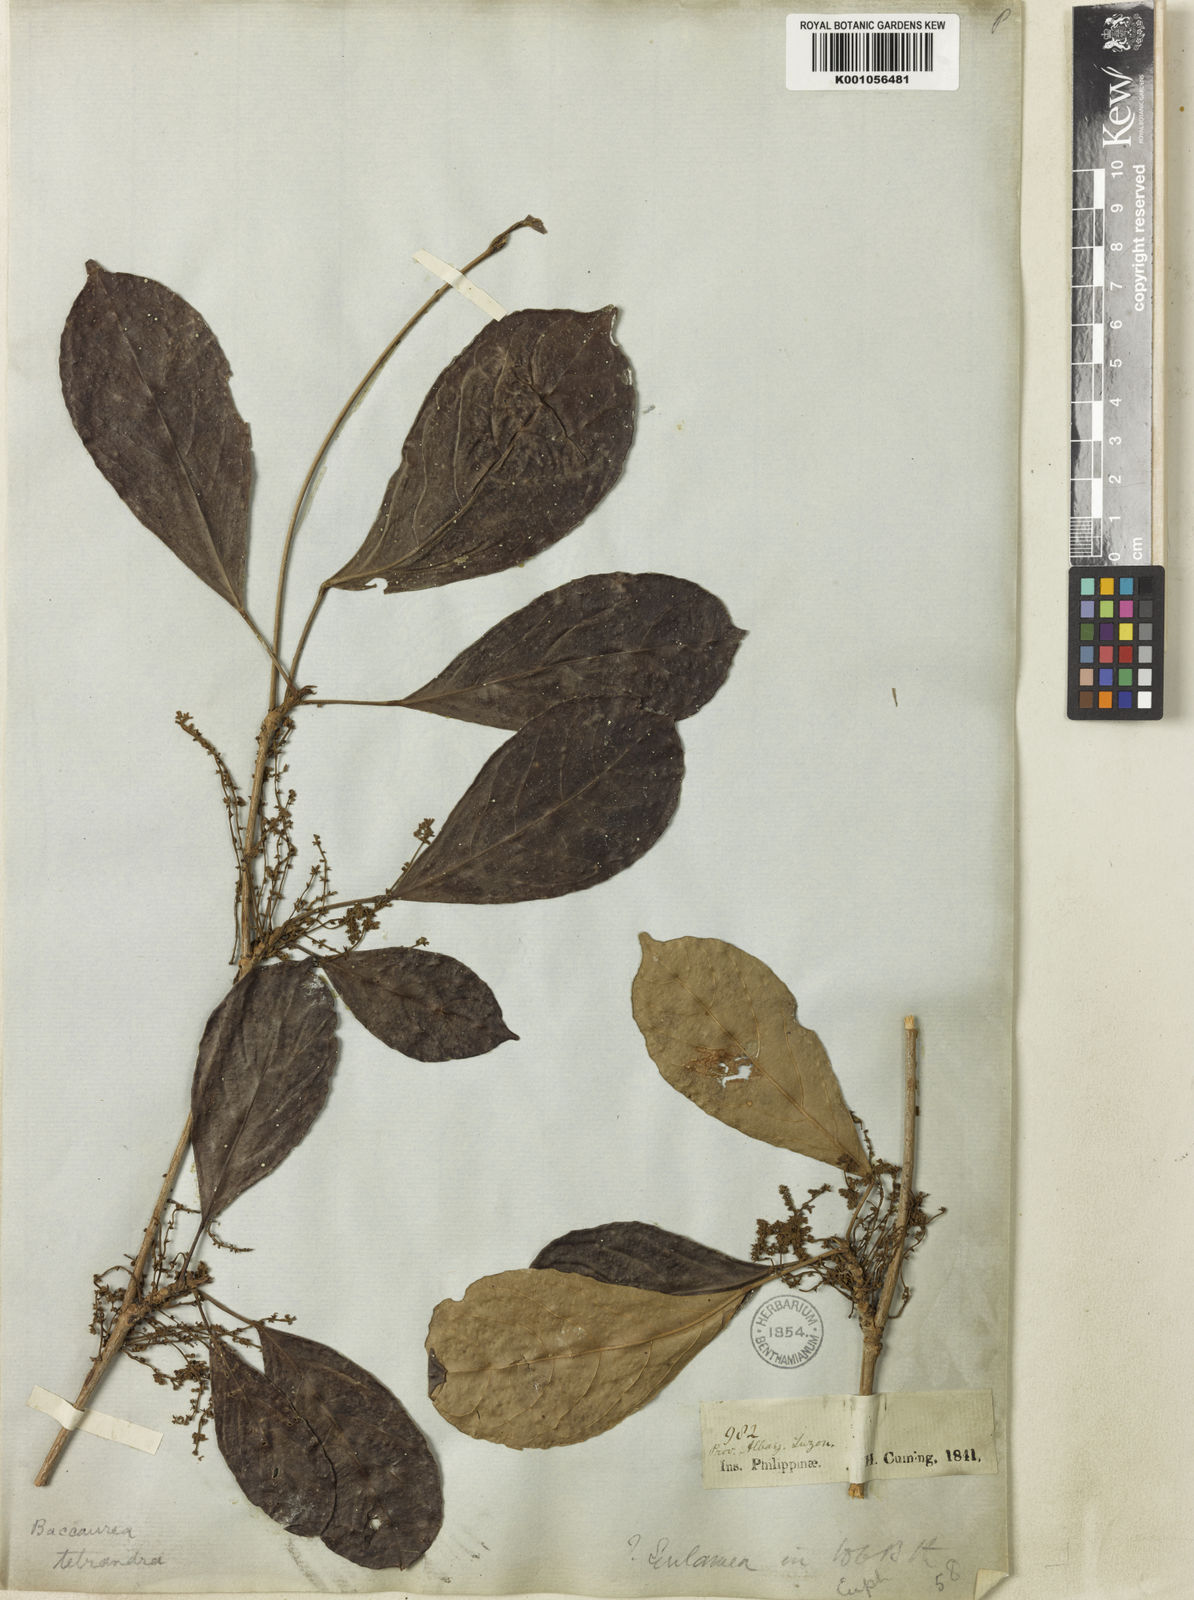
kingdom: Plantae
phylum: Tracheophyta
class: Magnoliopsida
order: Malpighiales
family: Phyllanthaceae
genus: Baccaurea
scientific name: Baccaurea
